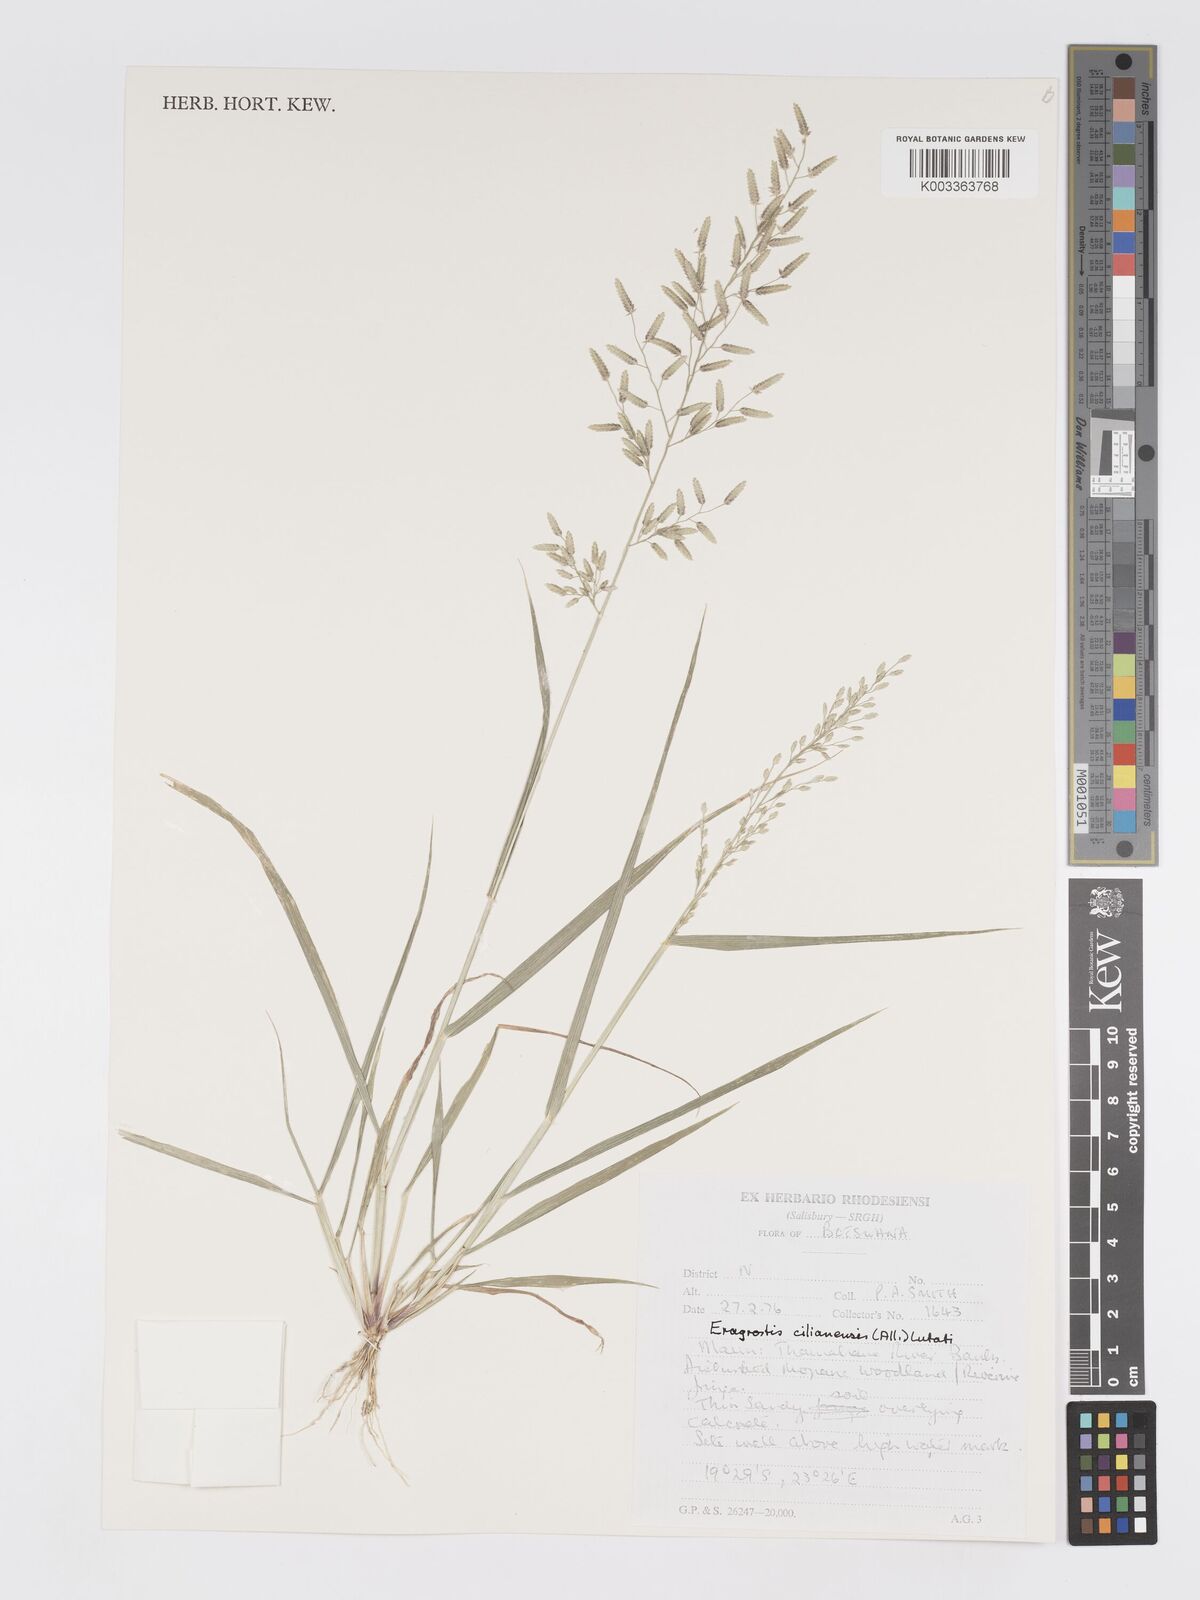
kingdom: Plantae
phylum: Tracheophyta
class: Liliopsida
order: Poales
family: Poaceae
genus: Eragrostis
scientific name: Eragrostis cilianensis
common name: Stinkgrass
